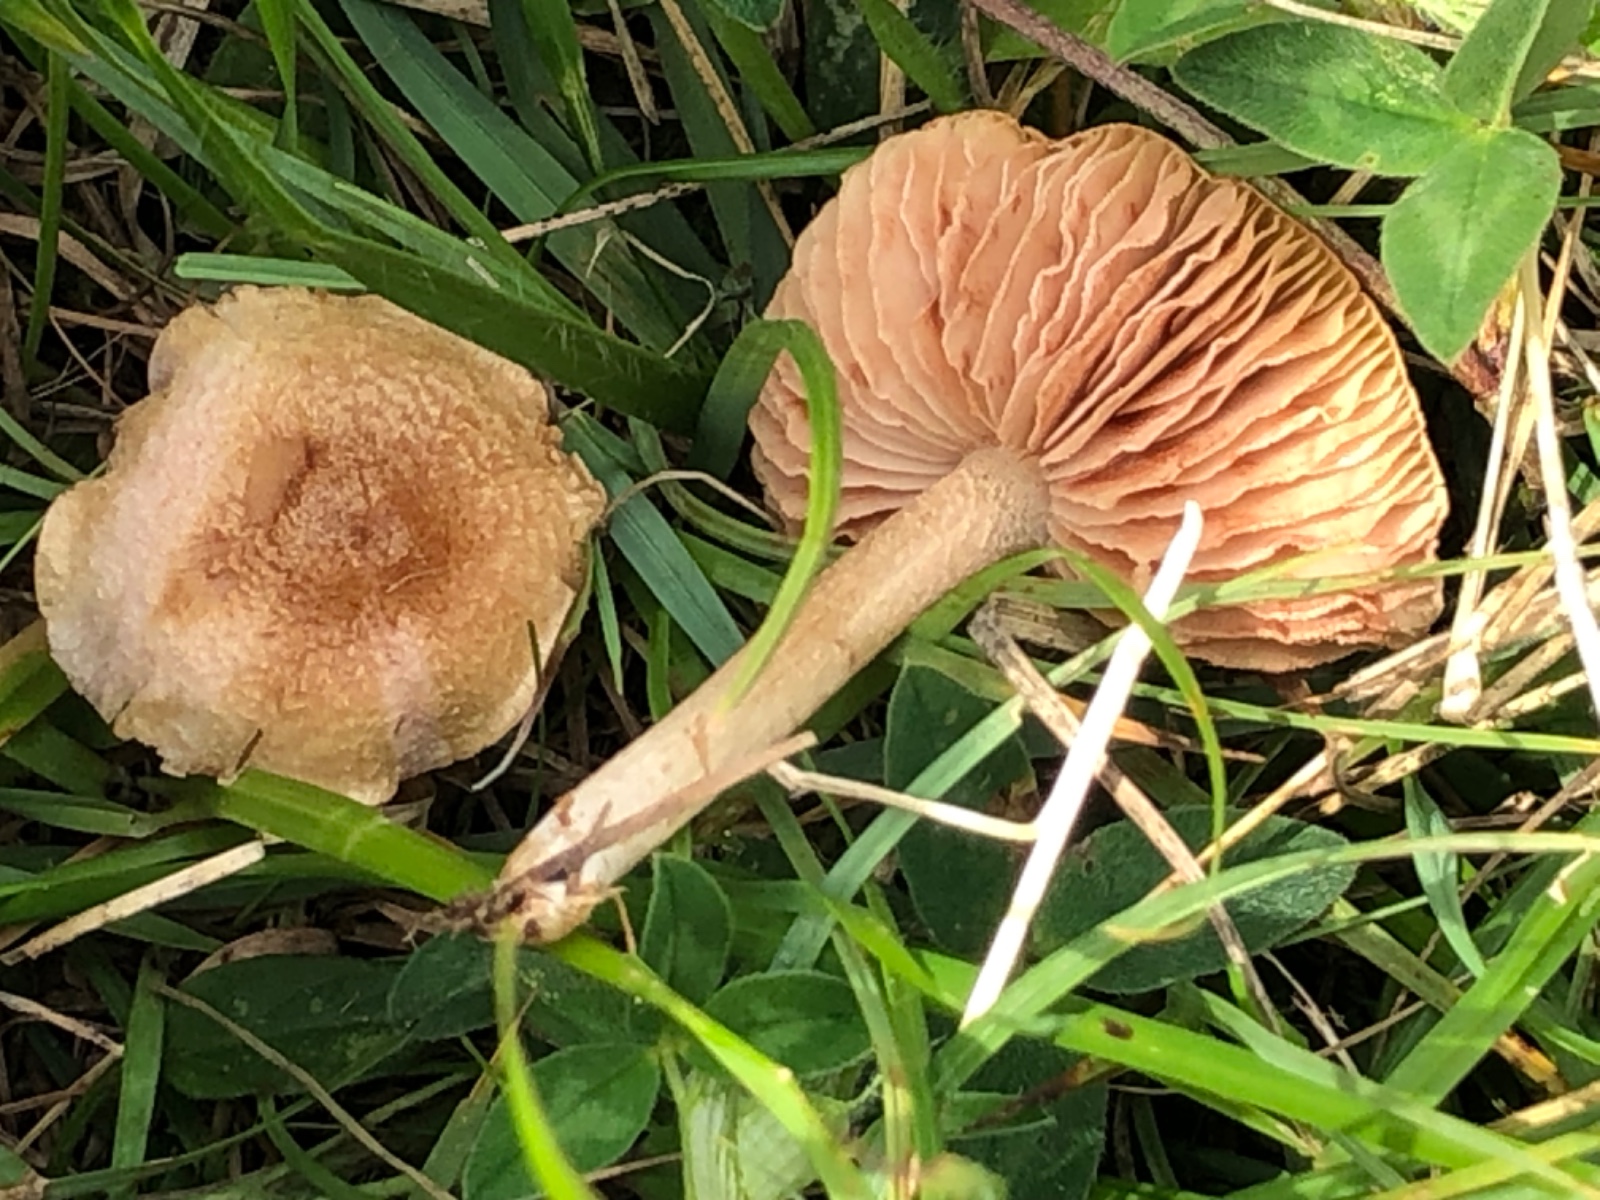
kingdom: Fungi
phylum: Basidiomycota
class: Agaricomycetes
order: Agaricales
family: Entolomataceae
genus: Entoloma
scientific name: Entoloma queletii
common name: rosalilla rødblad
